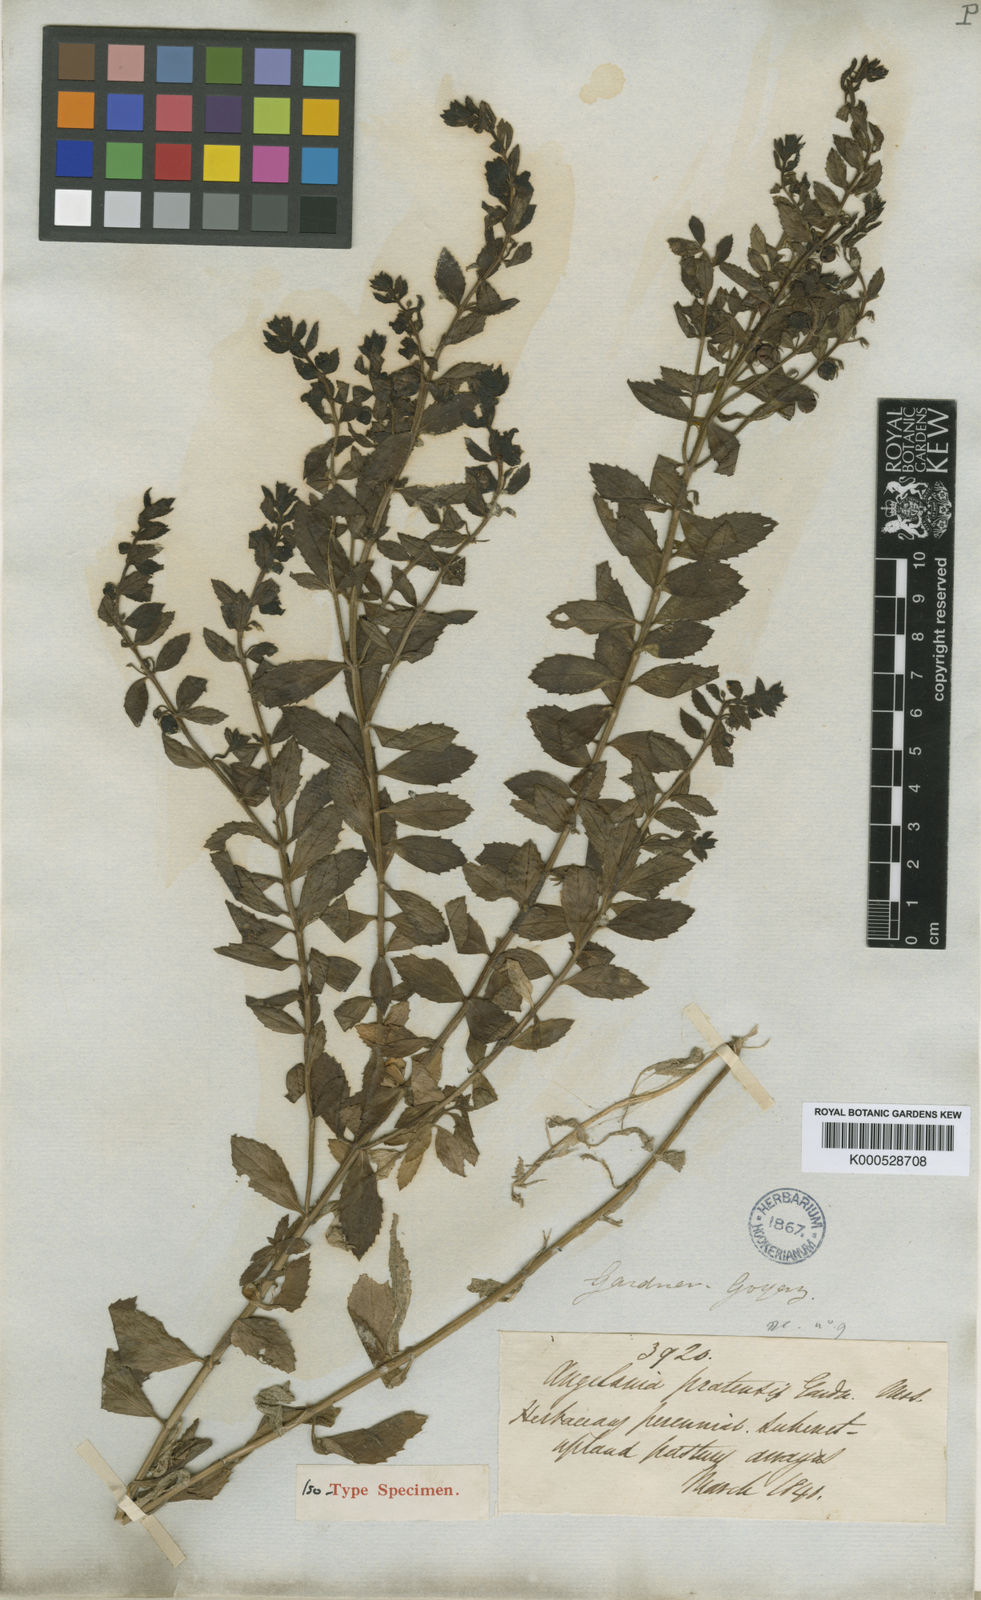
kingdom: Plantae
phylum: Tracheophyta
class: Magnoliopsida
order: Lamiales
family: Plantaginaceae
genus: Angelonia
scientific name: Angelonia
